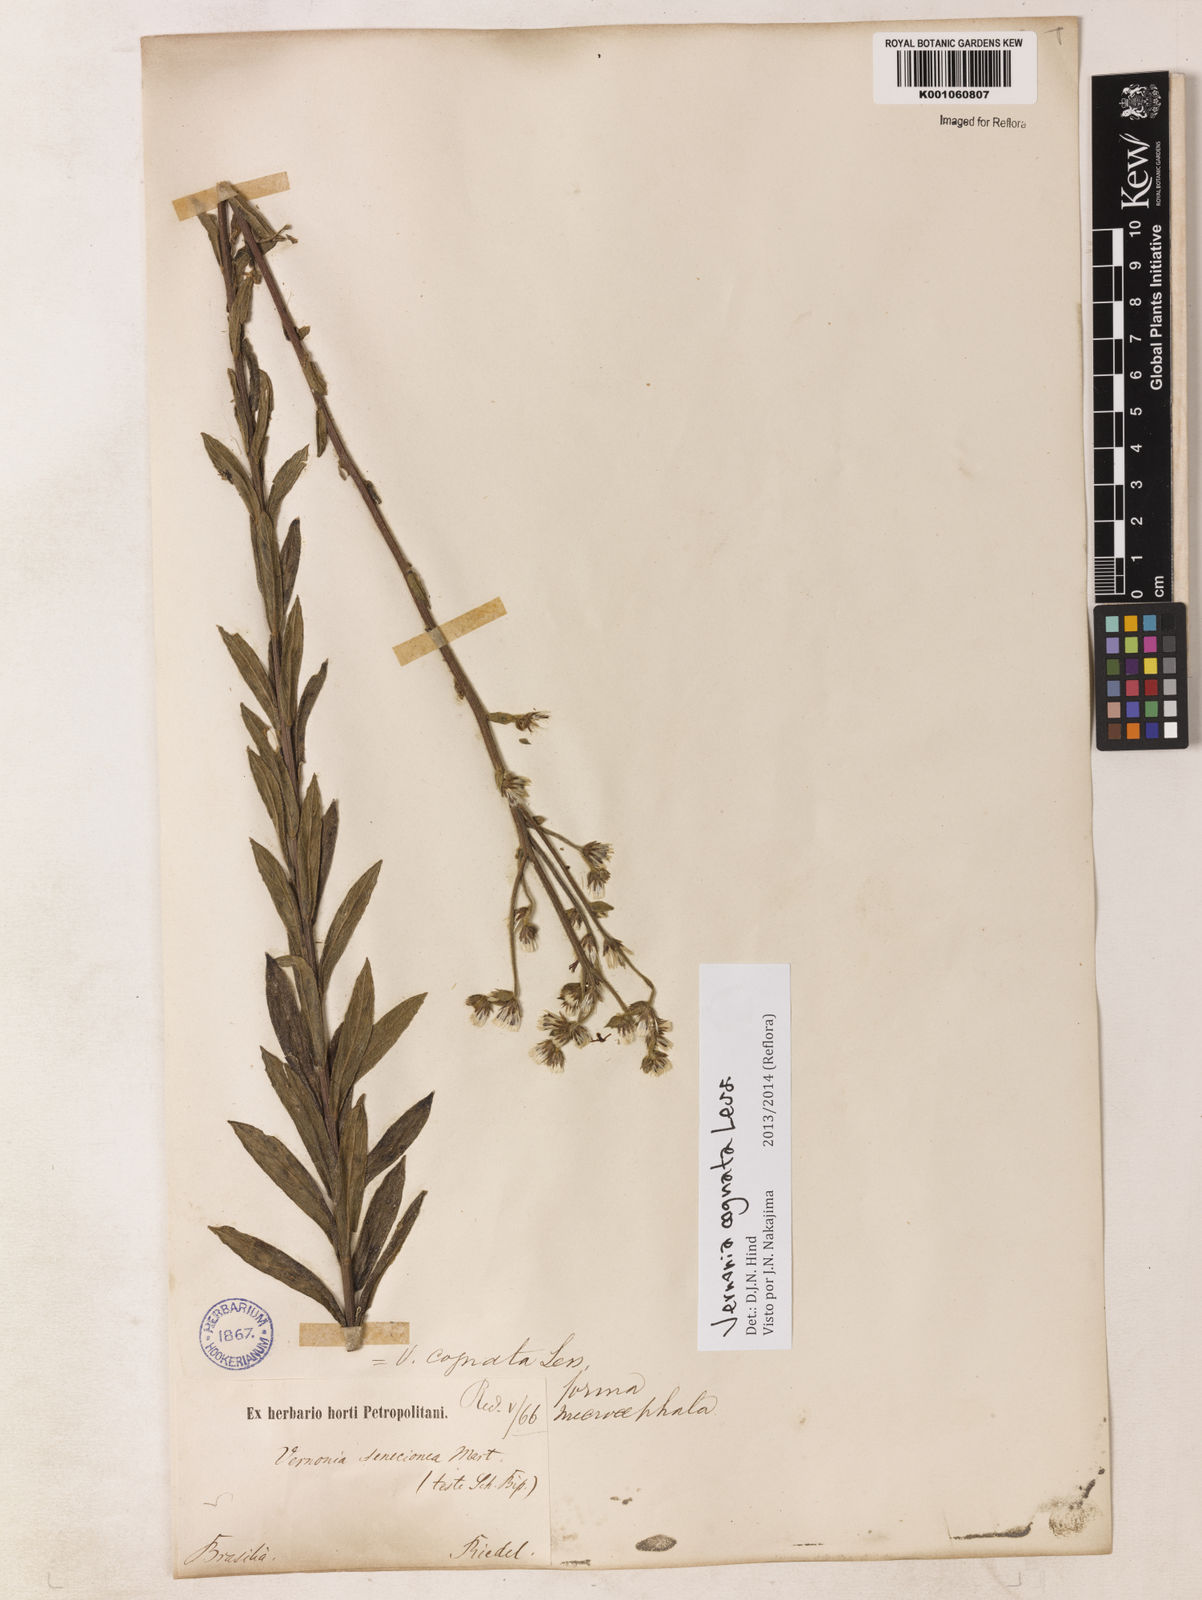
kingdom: Plantae
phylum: Tracheophyta
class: Magnoliopsida
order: Asterales
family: Asteraceae
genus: Chrysolaena
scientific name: Chrysolaena cognata
